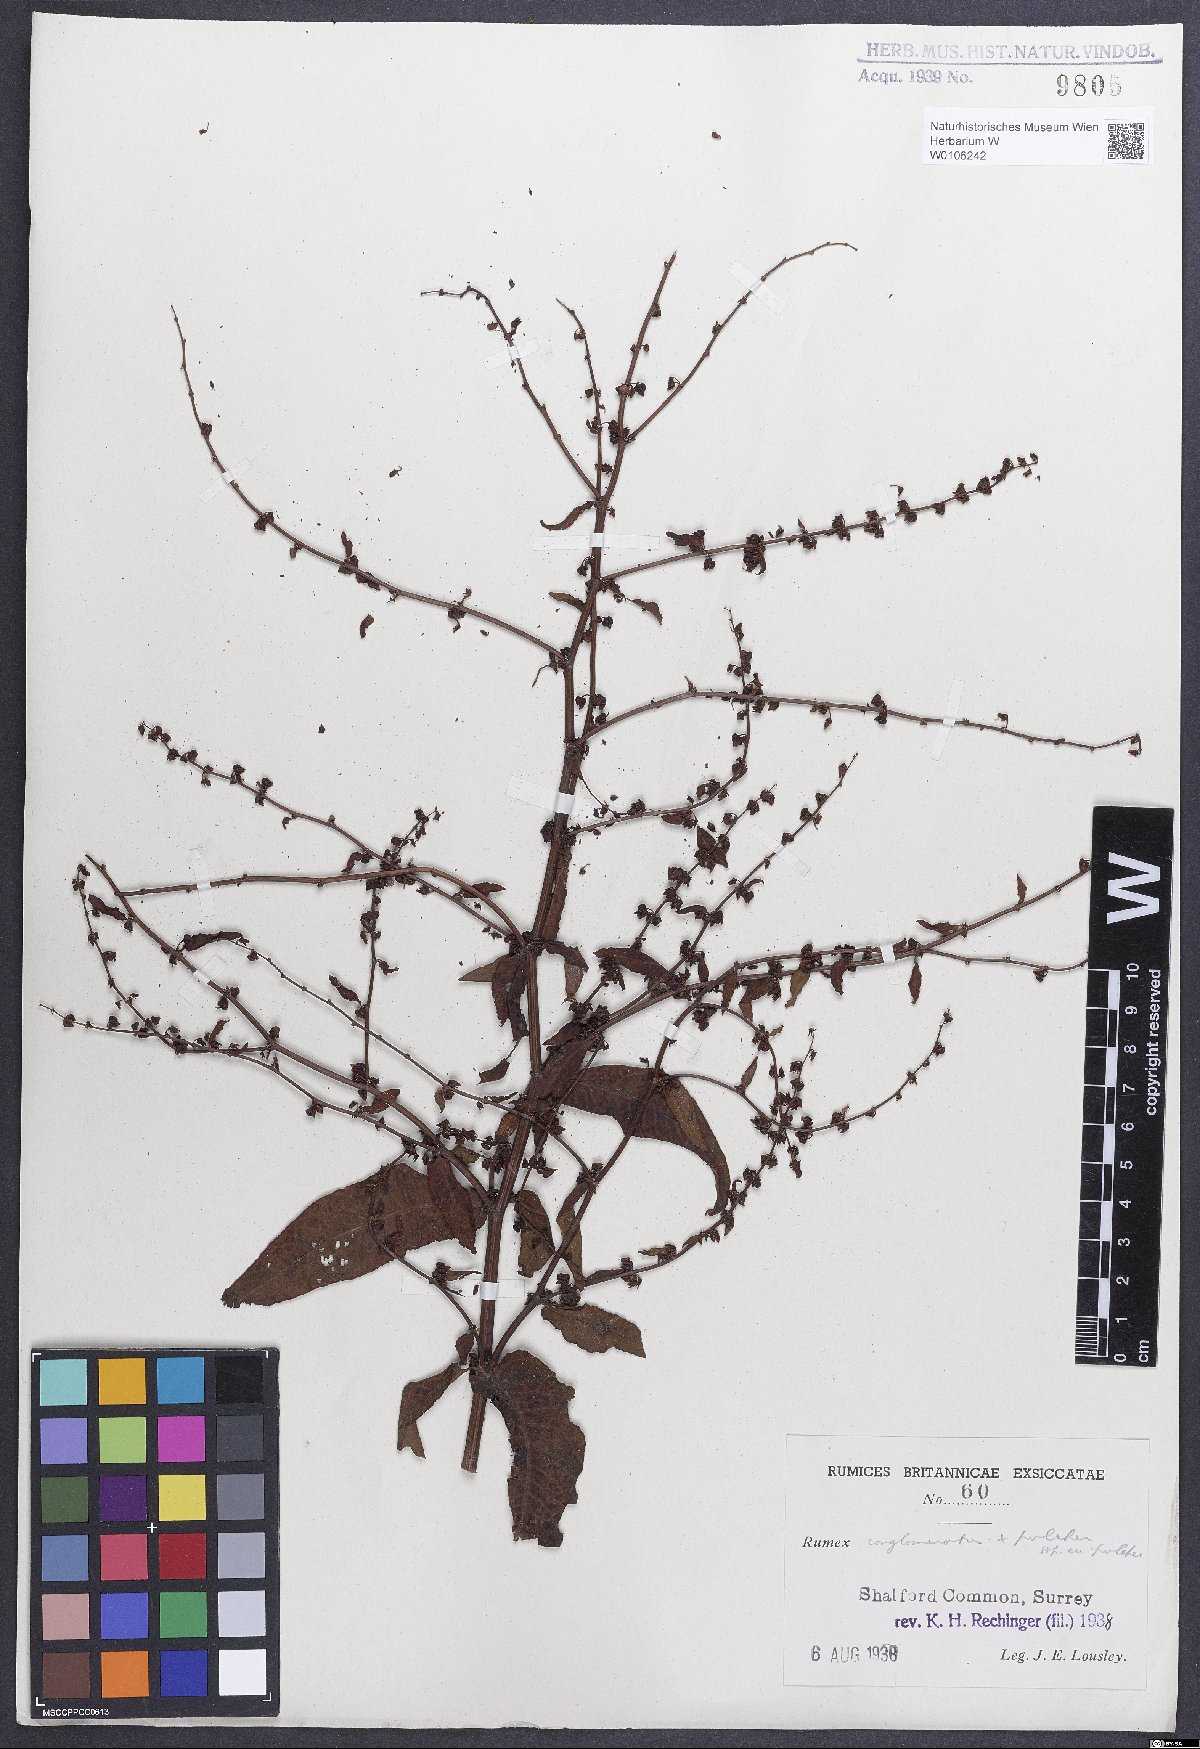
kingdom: Plantae
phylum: Tracheophyta
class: Magnoliopsida
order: Caryophyllales
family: Polygonaceae
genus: Rumex
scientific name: Rumex
